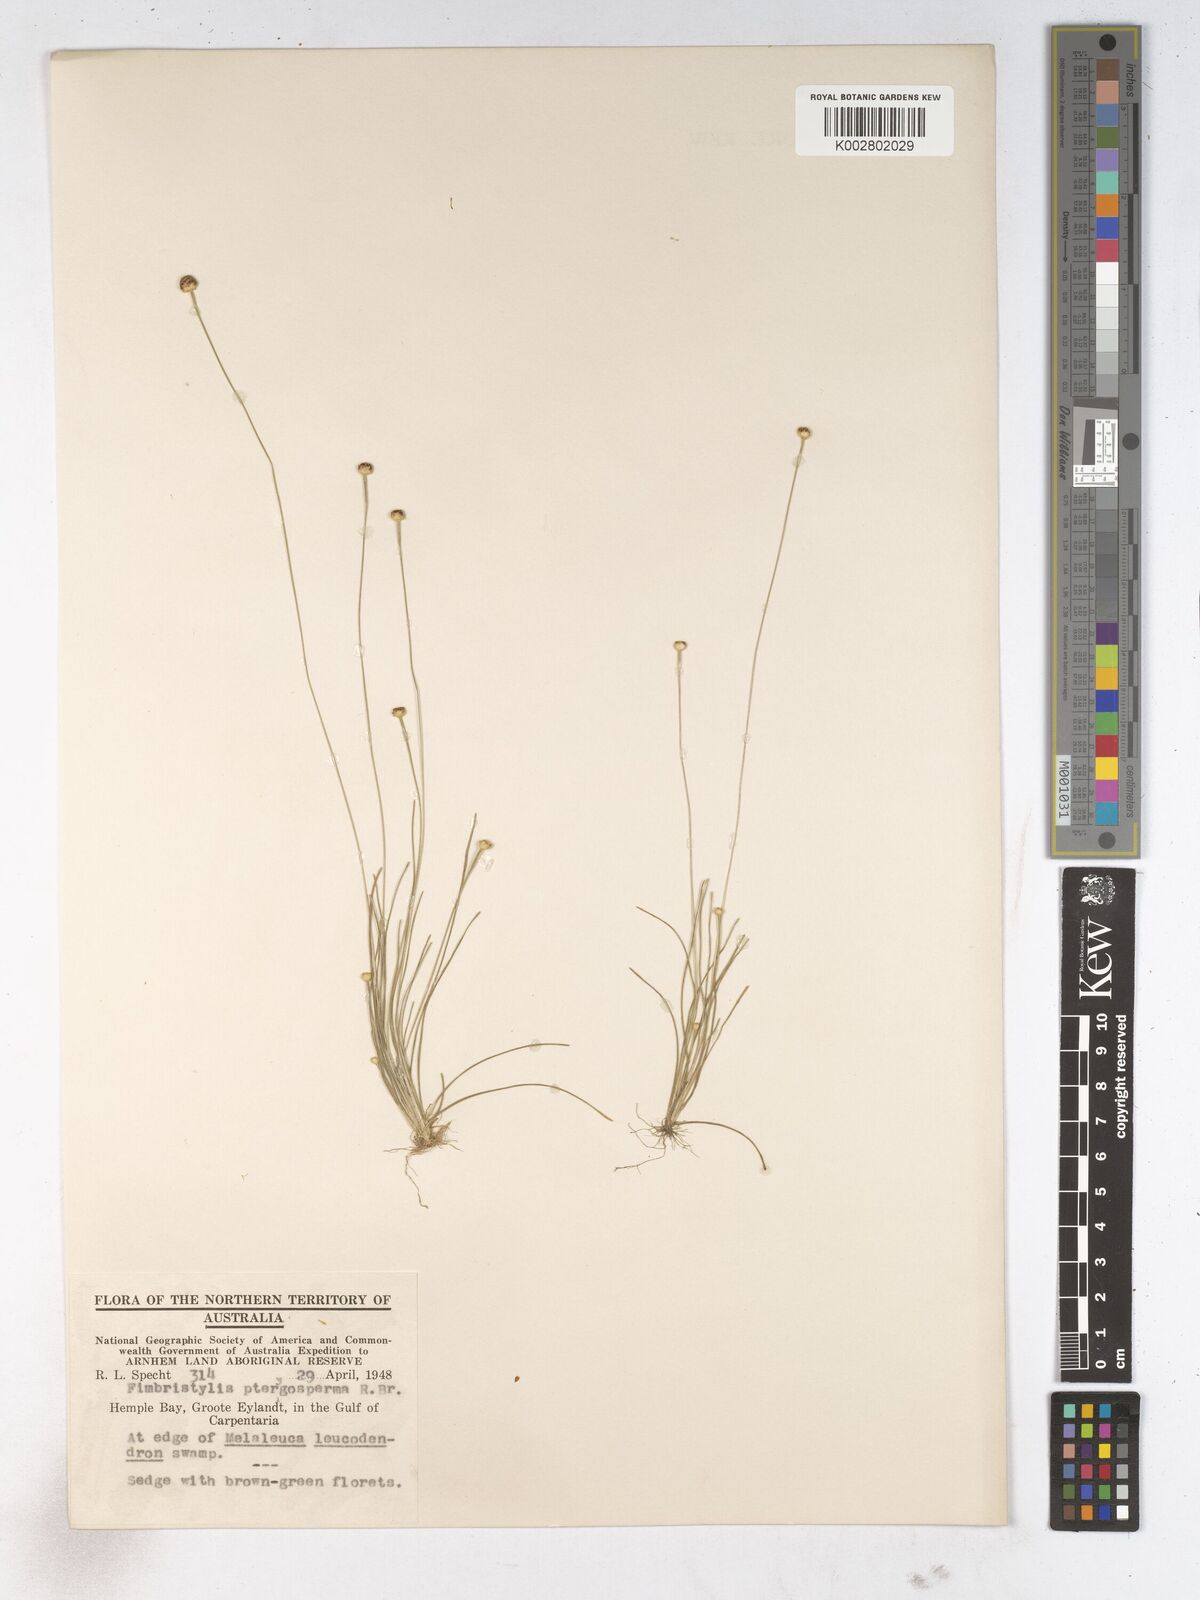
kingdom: Plantae
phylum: Tracheophyta
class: Liliopsida
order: Poales
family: Cyperaceae
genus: Fimbristylis
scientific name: Fimbristylis pterigosperma
